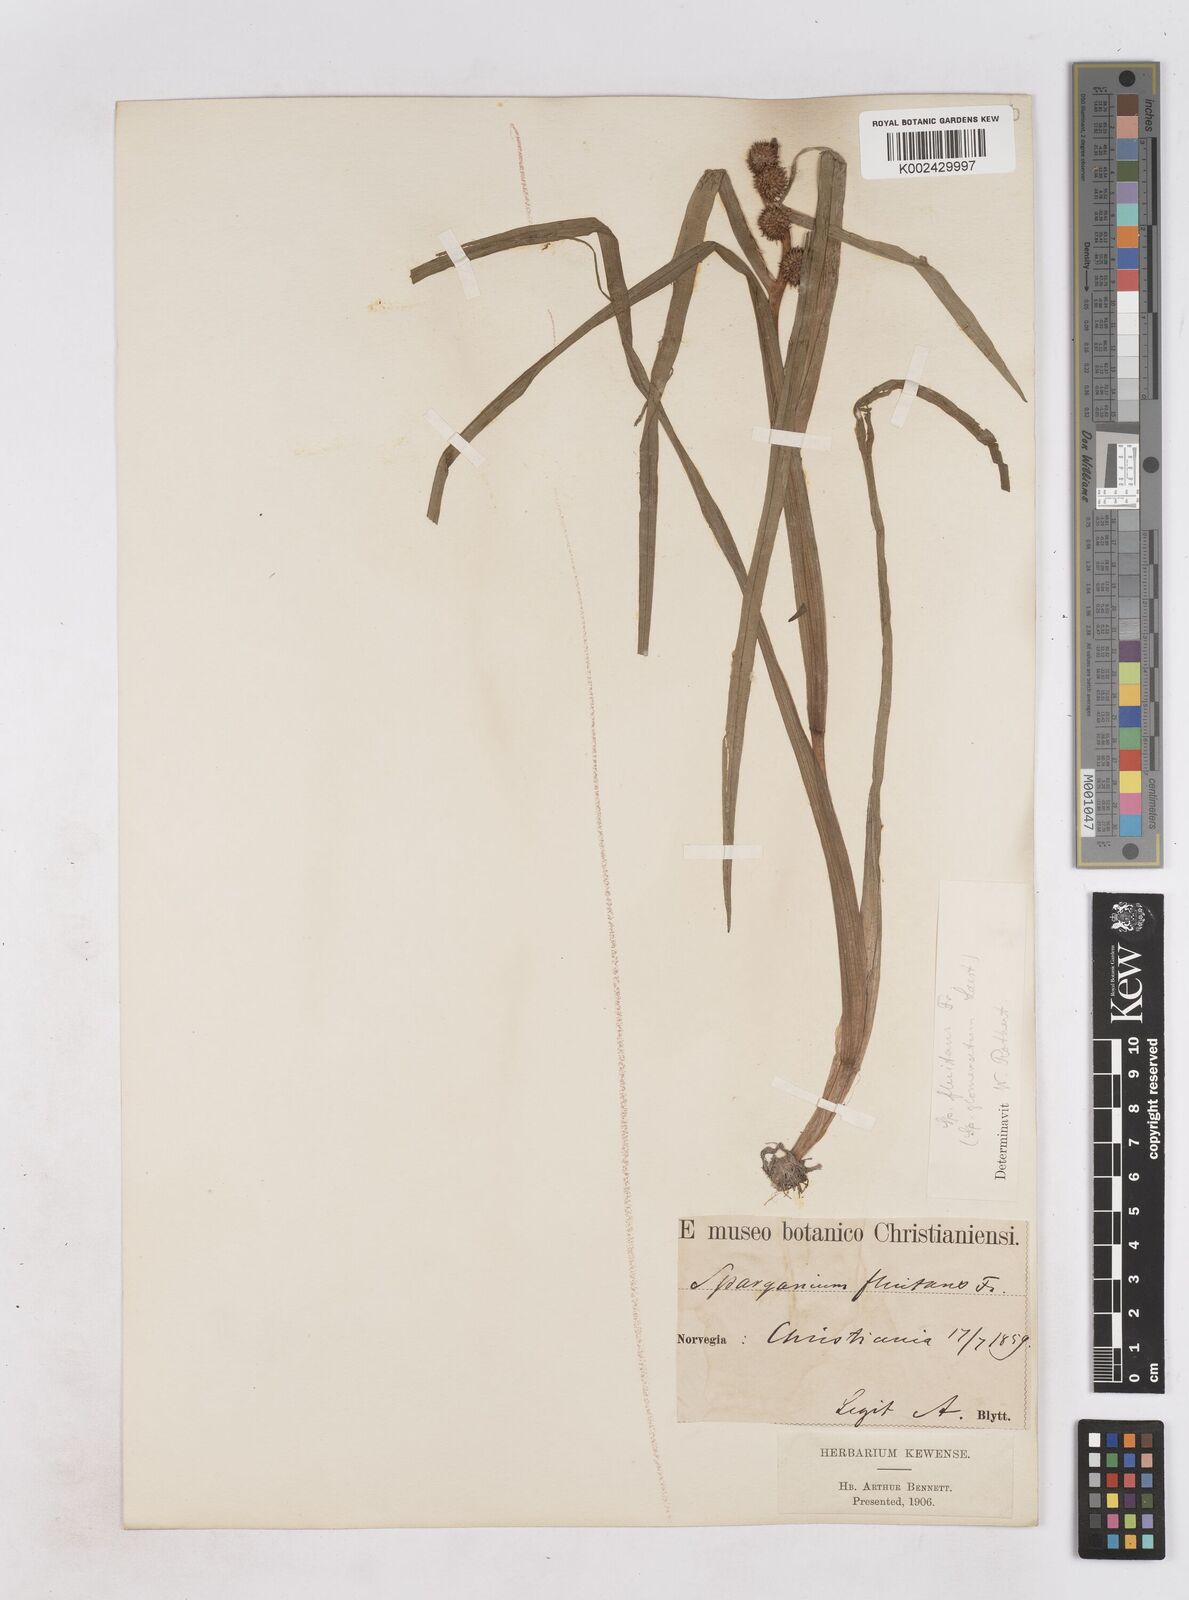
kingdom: Plantae
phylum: Tracheophyta
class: Liliopsida
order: Poales
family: Typhaceae
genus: Sparganium
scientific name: Sparganium angustifolium
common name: Floating bur-reed
